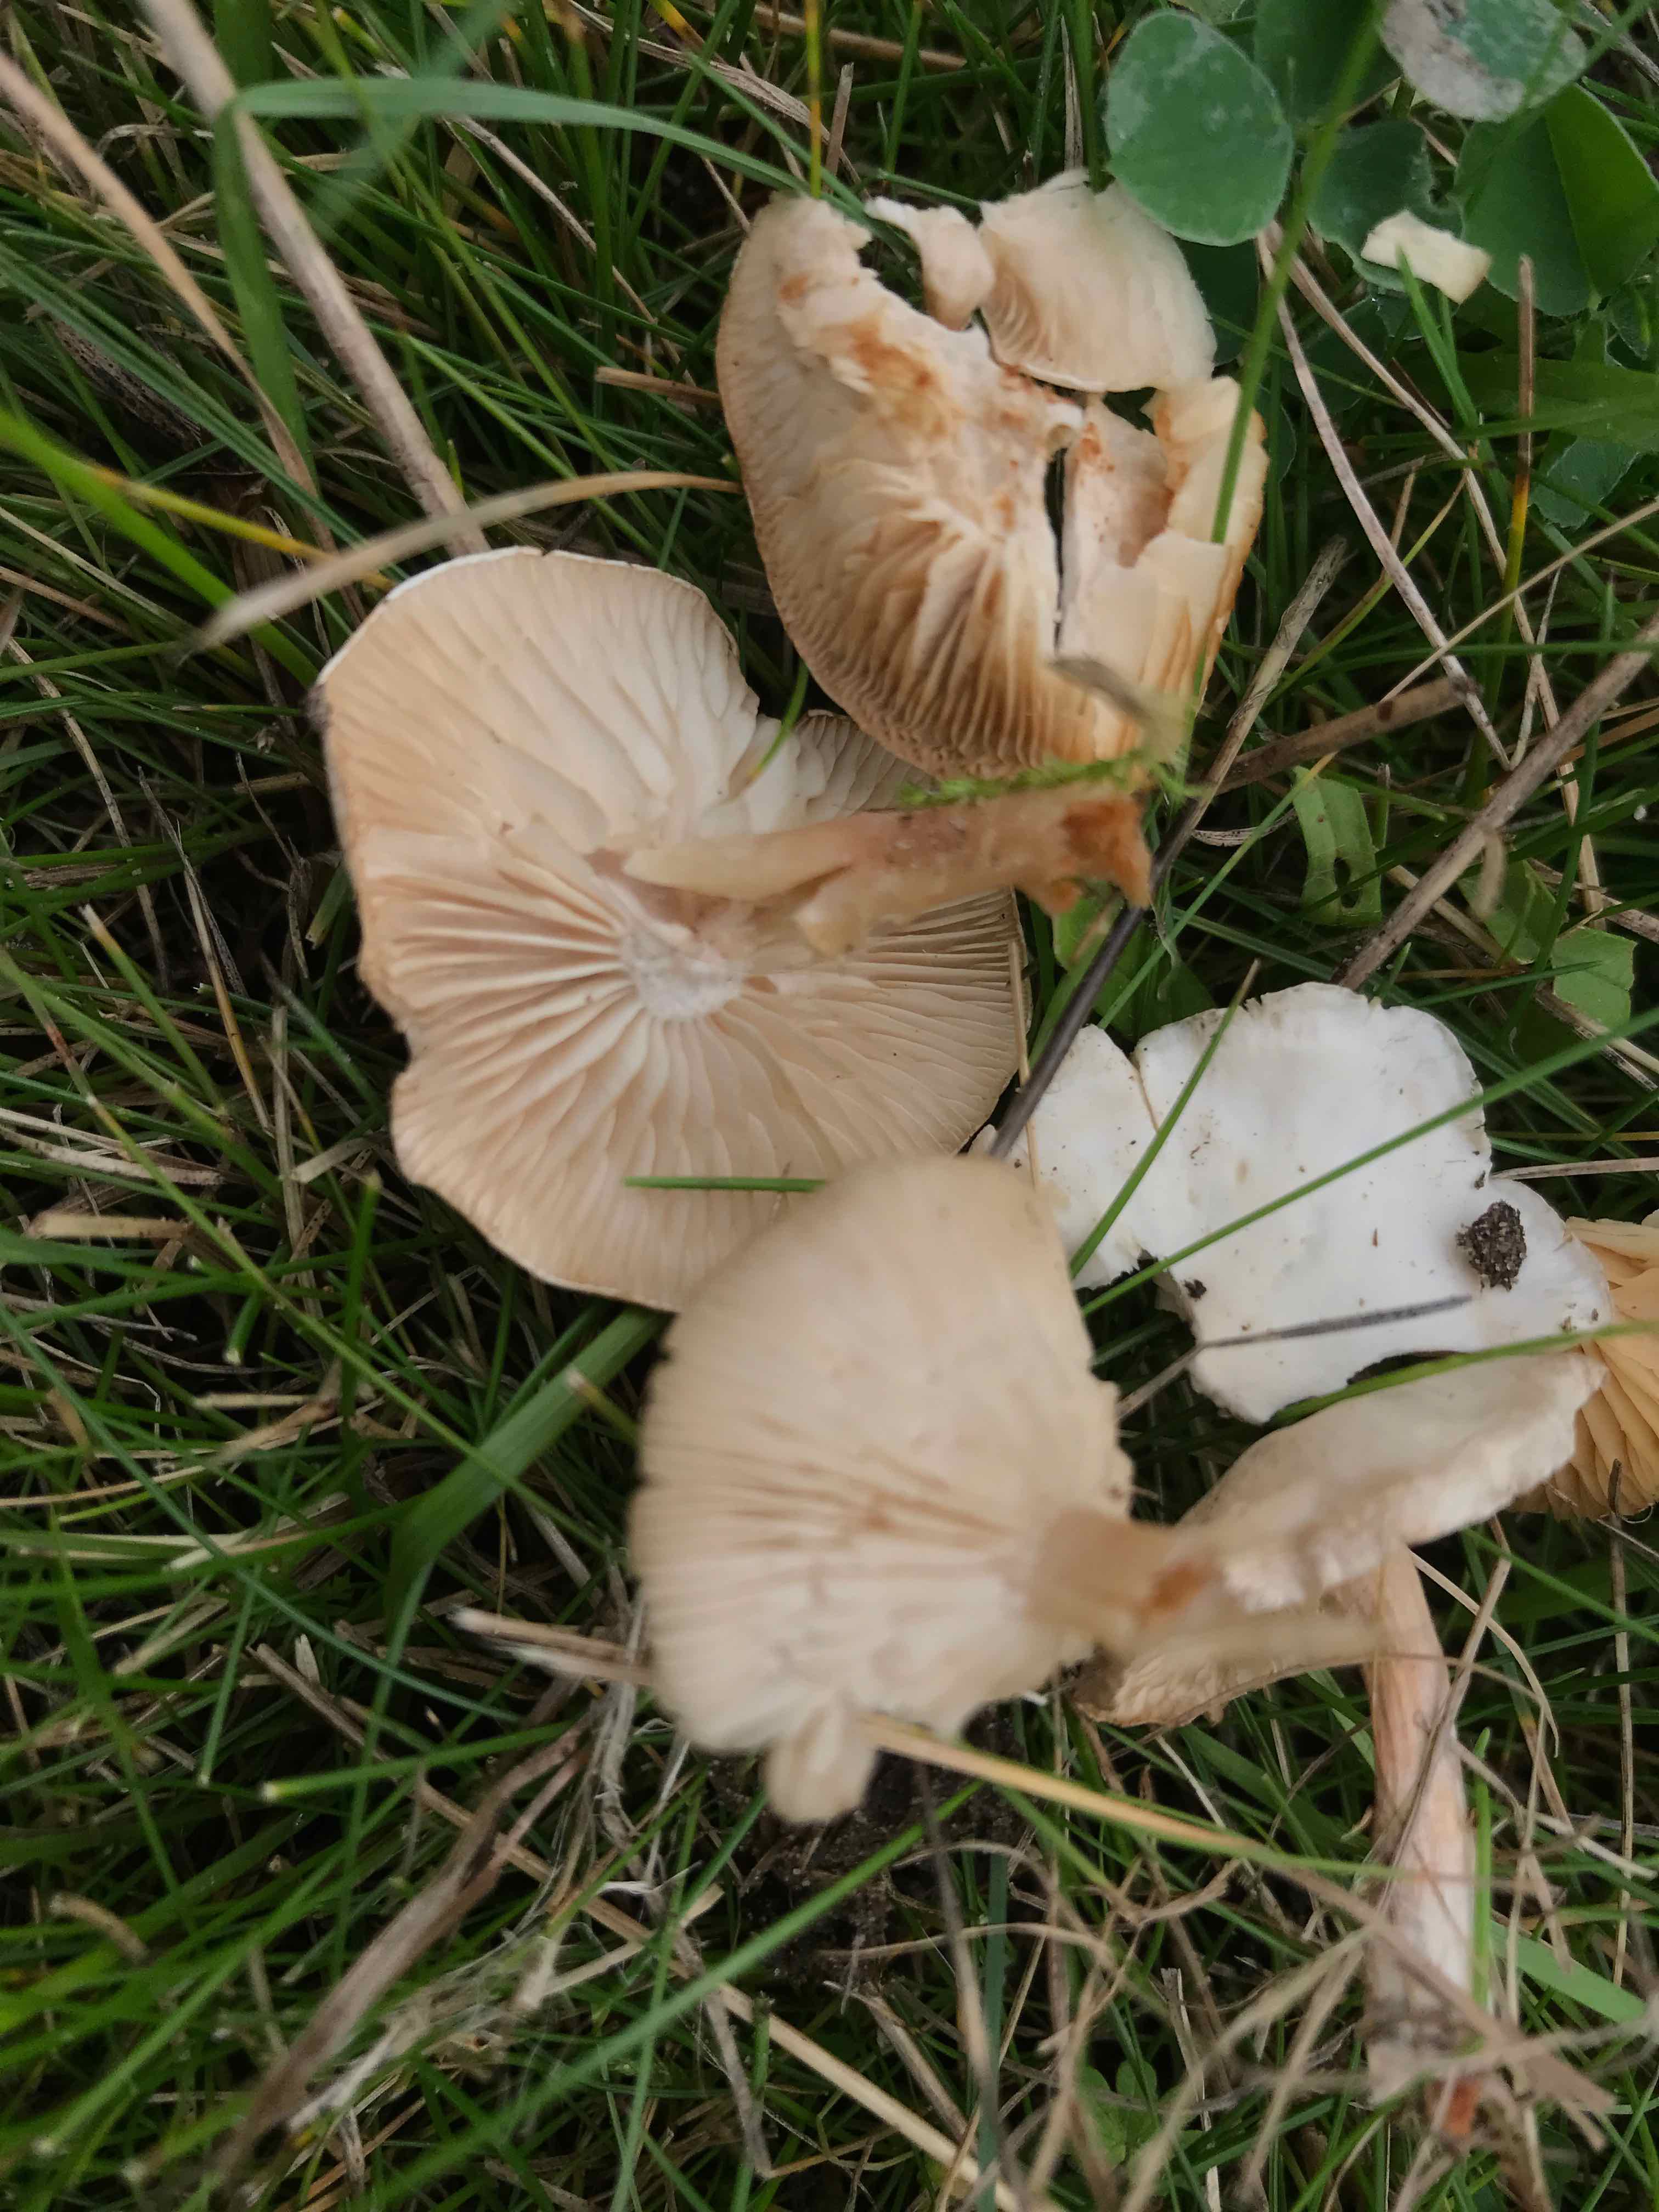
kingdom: Fungi
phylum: Basidiomycota
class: Agaricomycetes
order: Agaricales
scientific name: Agaricales
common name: champignonordenen
